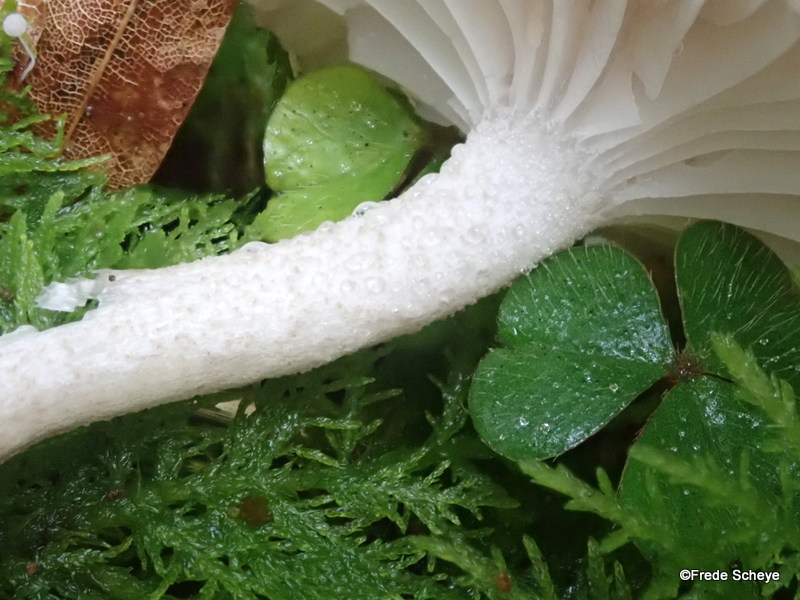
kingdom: Fungi
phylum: Basidiomycota
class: Agaricomycetes
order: Agaricales
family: Hygrophoraceae
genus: Hygrophorus
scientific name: Hygrophorus pustulatus
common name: mørkprikket sneglehat
